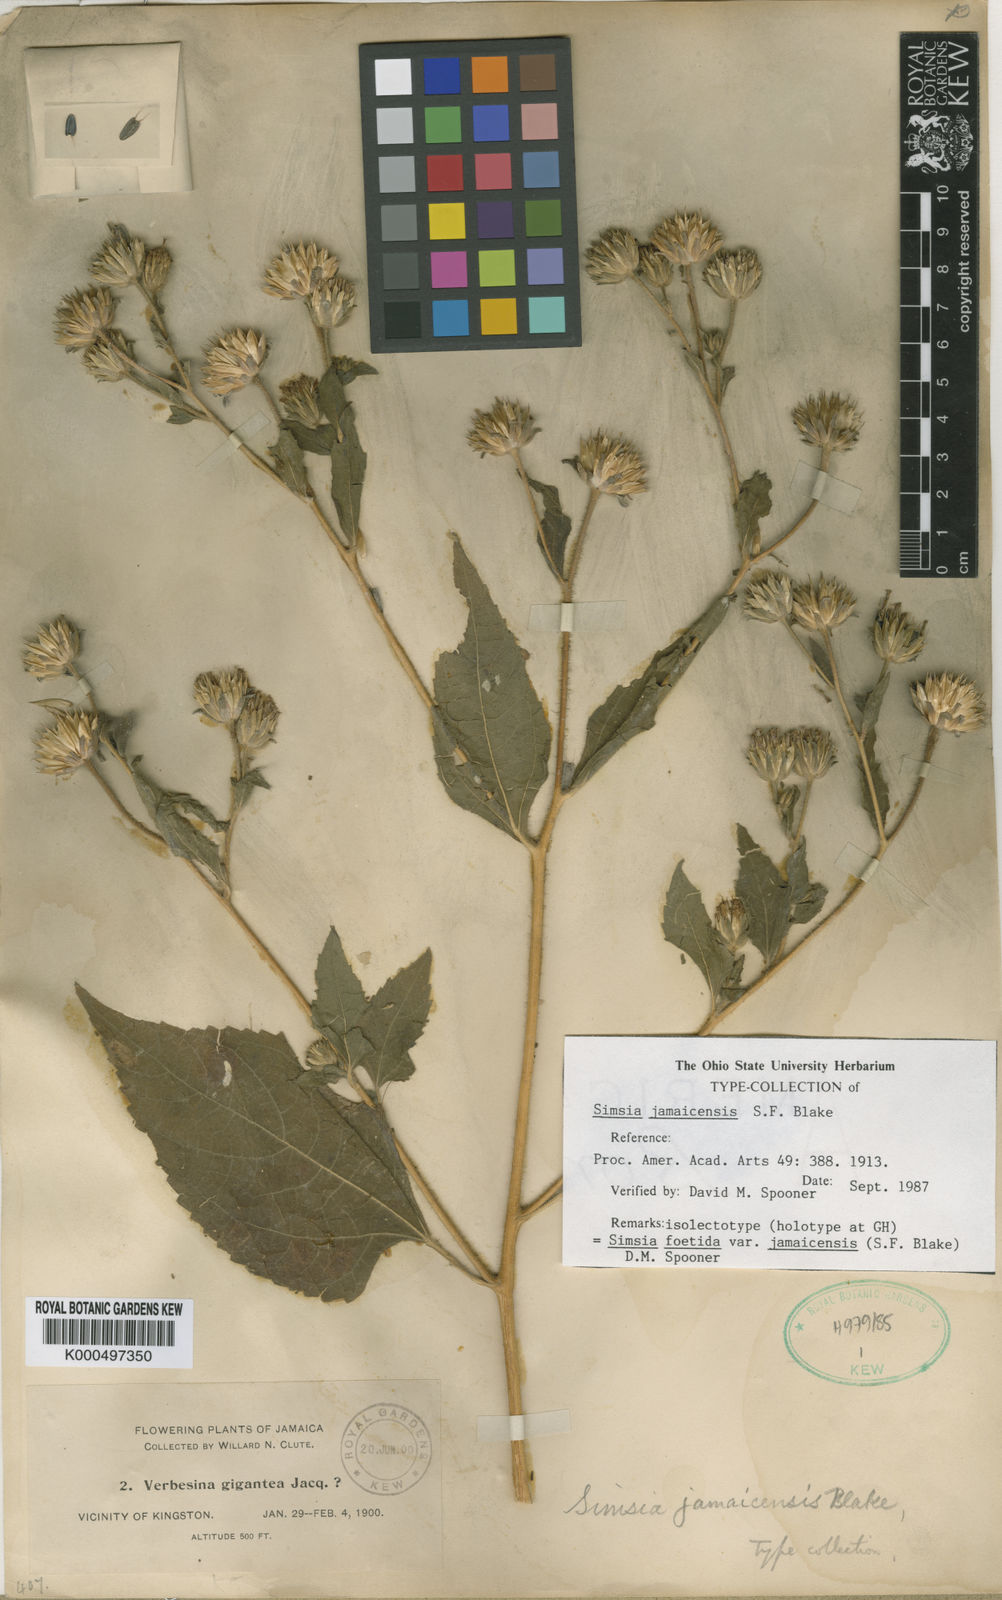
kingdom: Plantae
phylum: Tracheophyta
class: Magnoliopsida
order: Asterales
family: Asteraceae
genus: Simsia
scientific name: Simsia jamaicensis
